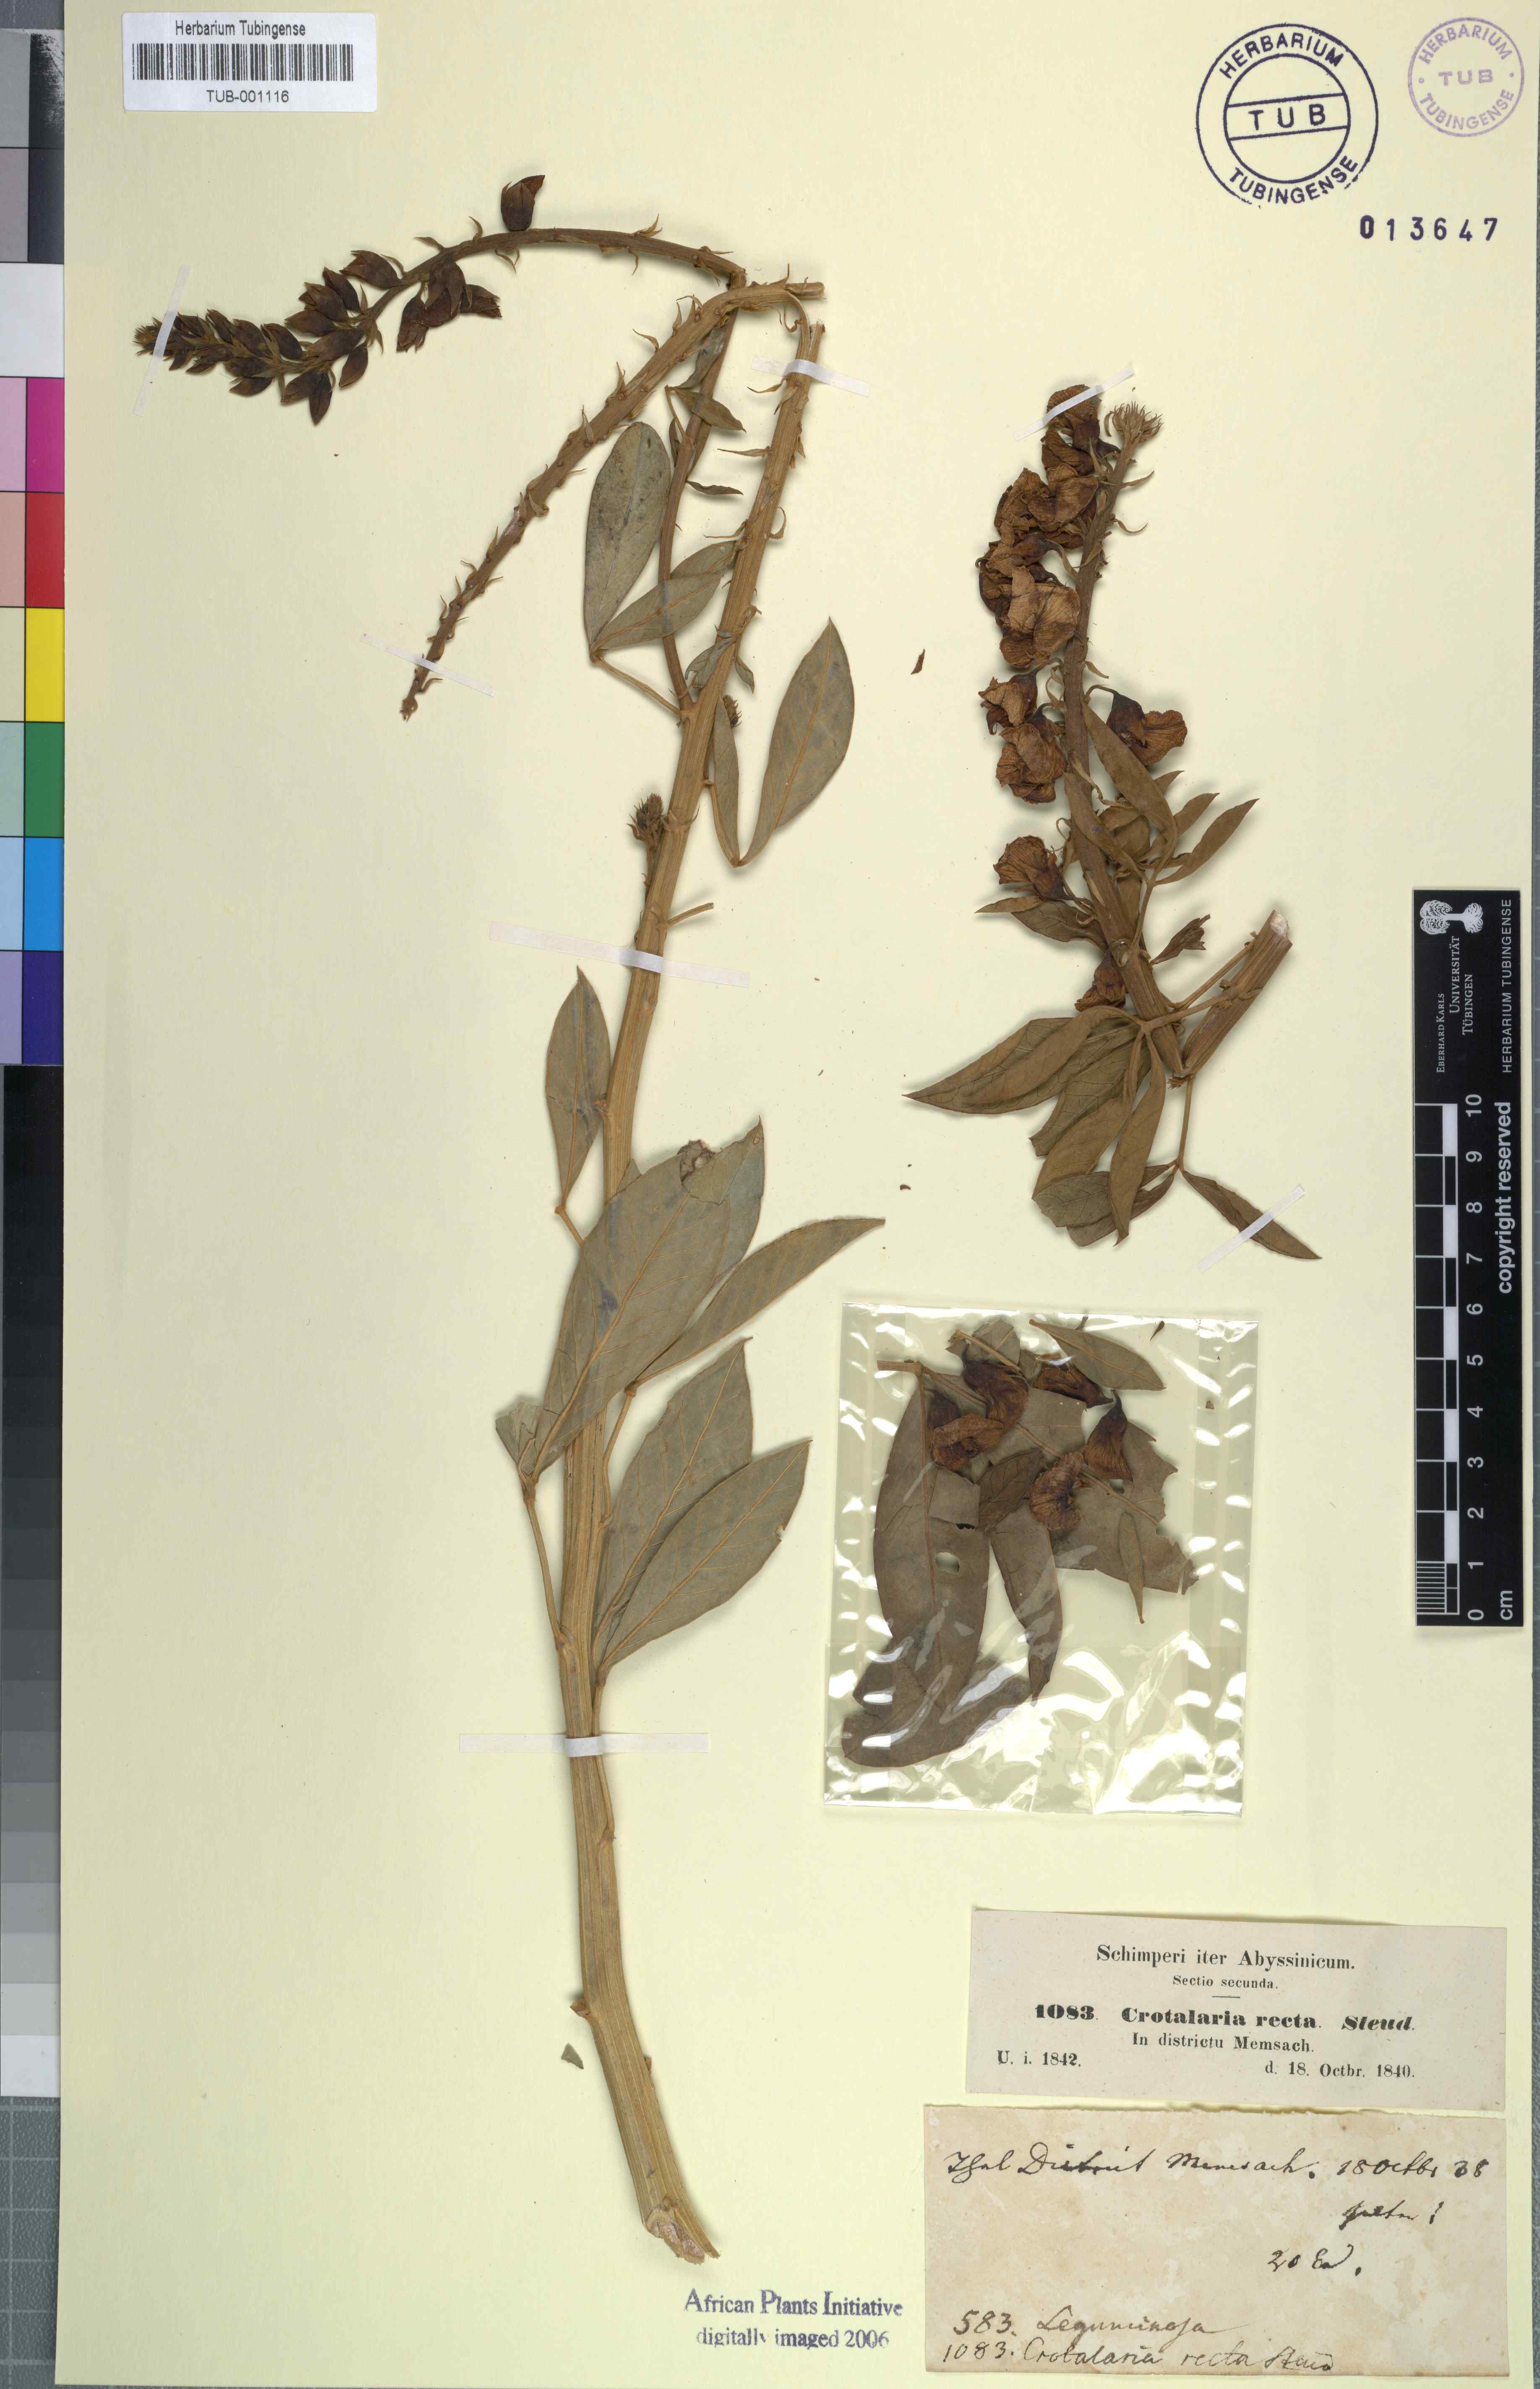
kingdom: Plantae
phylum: Tracheophyta
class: Magnoliopsida
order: Fabales
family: Fabaceae
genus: Crotalaria
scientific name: Crotalaria recta
